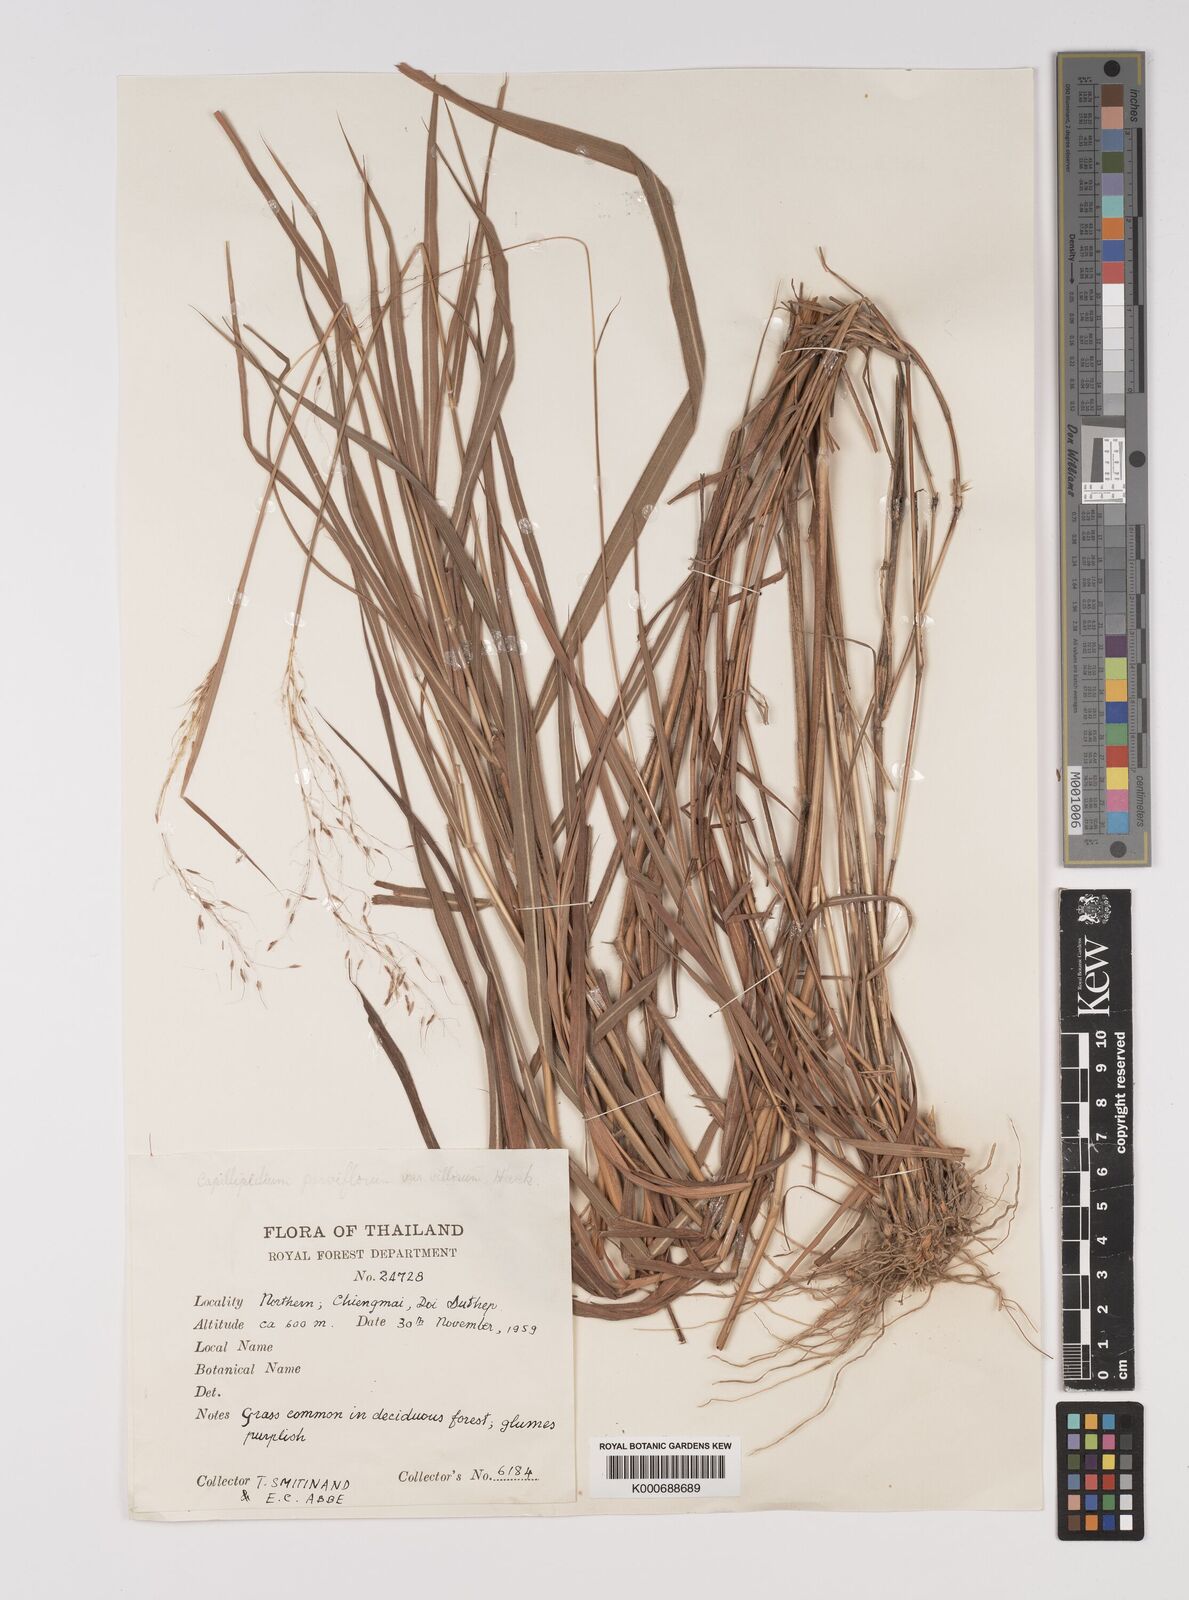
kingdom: Plantae
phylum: Tracheophyta
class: Liliopsida
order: Poales
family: Poaceae
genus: Capillipedium
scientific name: Capillipedium parviflorum
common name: Golden-beard
